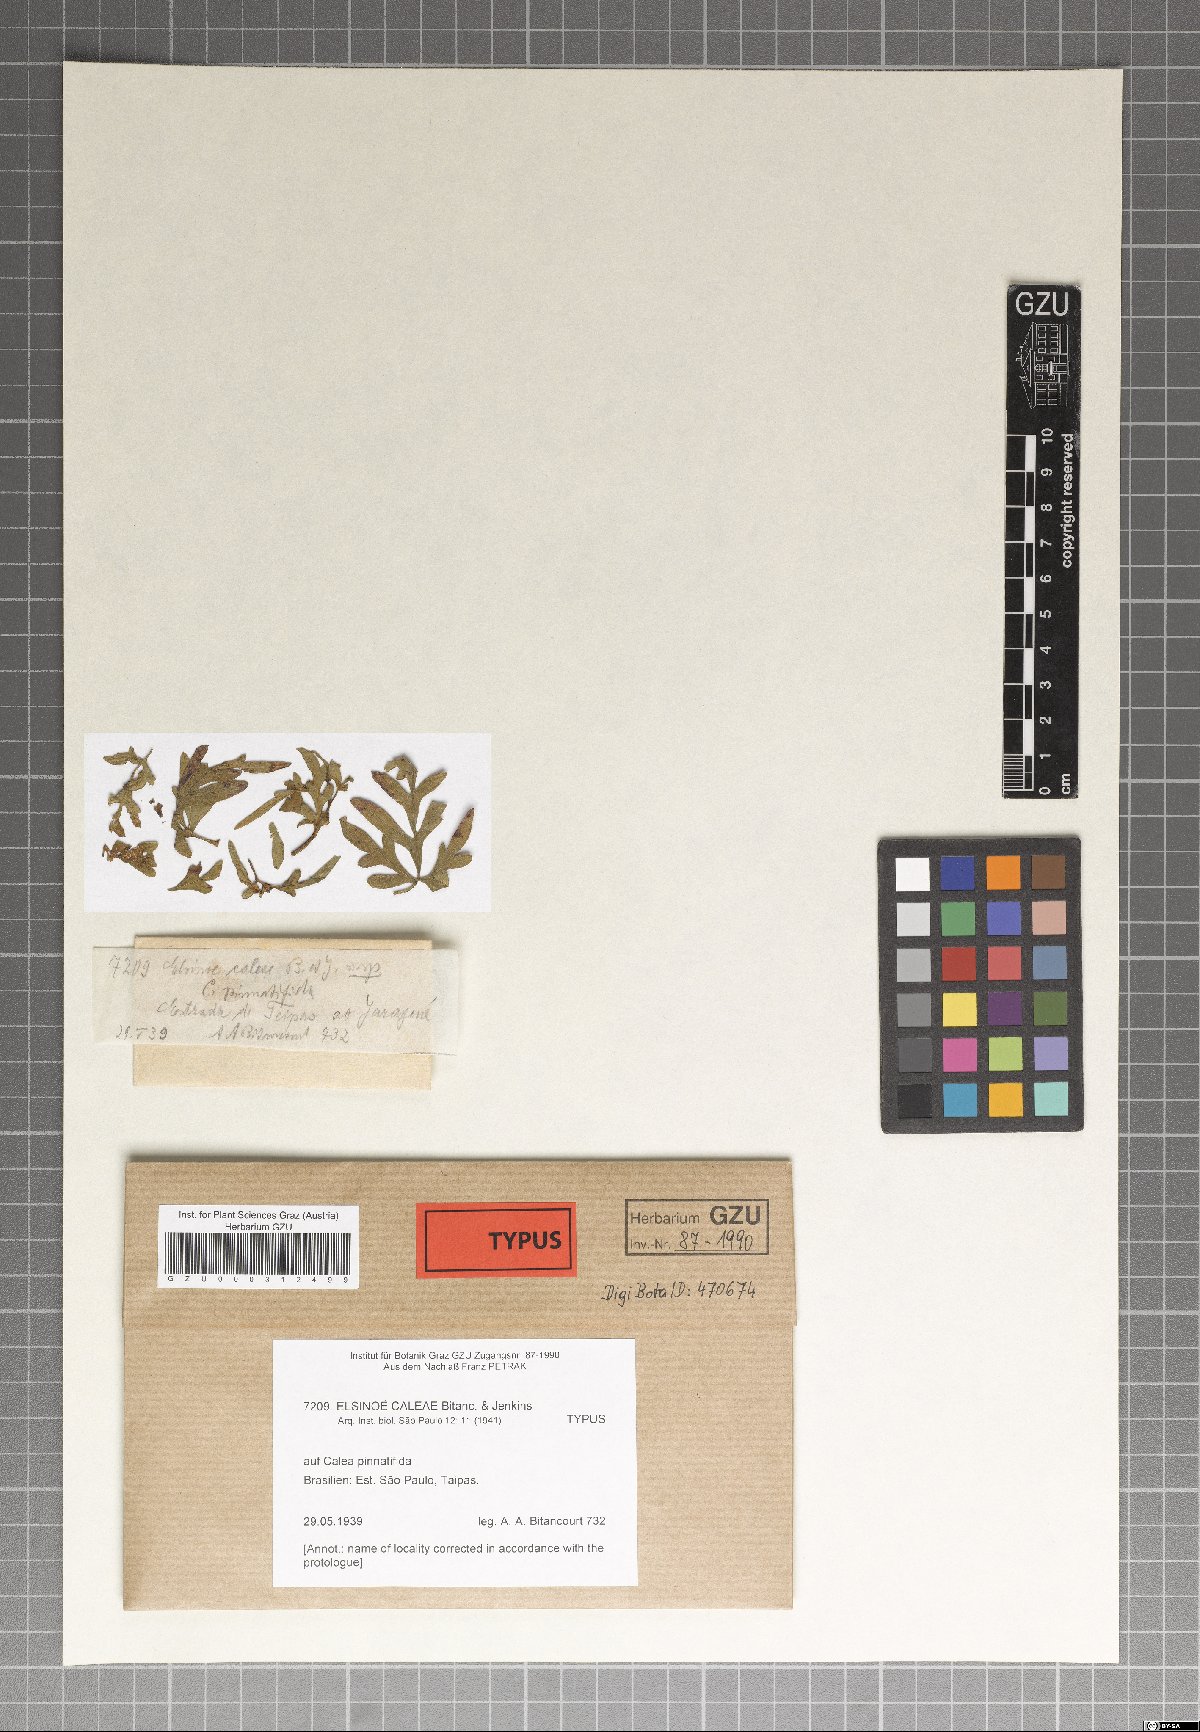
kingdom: Fungi
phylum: Ascomycota
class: Dothideomycetes
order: Myriangiales
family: Elsinoaceae
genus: Elsinoe
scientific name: Elsinoe caleae
